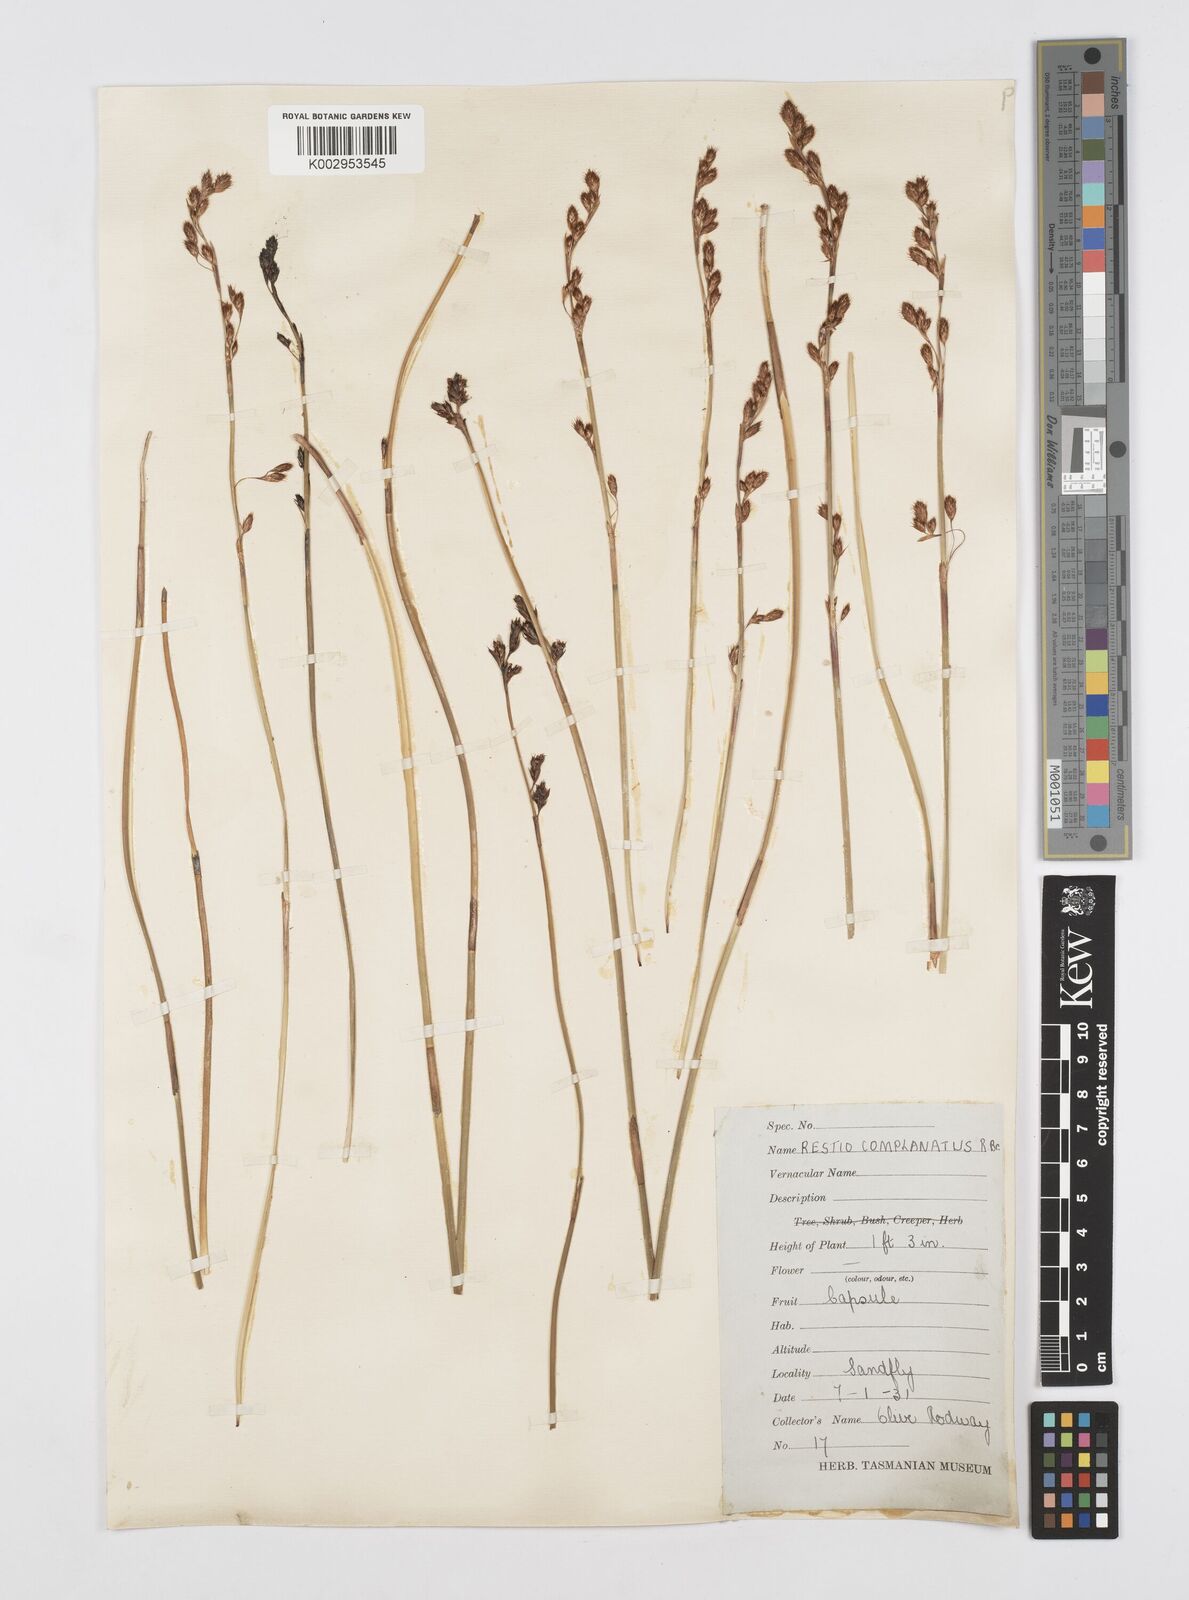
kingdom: Plantae
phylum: Tracheophyta
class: Liliopsida
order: Poales
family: Restionaceae
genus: Eurychorda
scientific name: Eurychorda complanata
